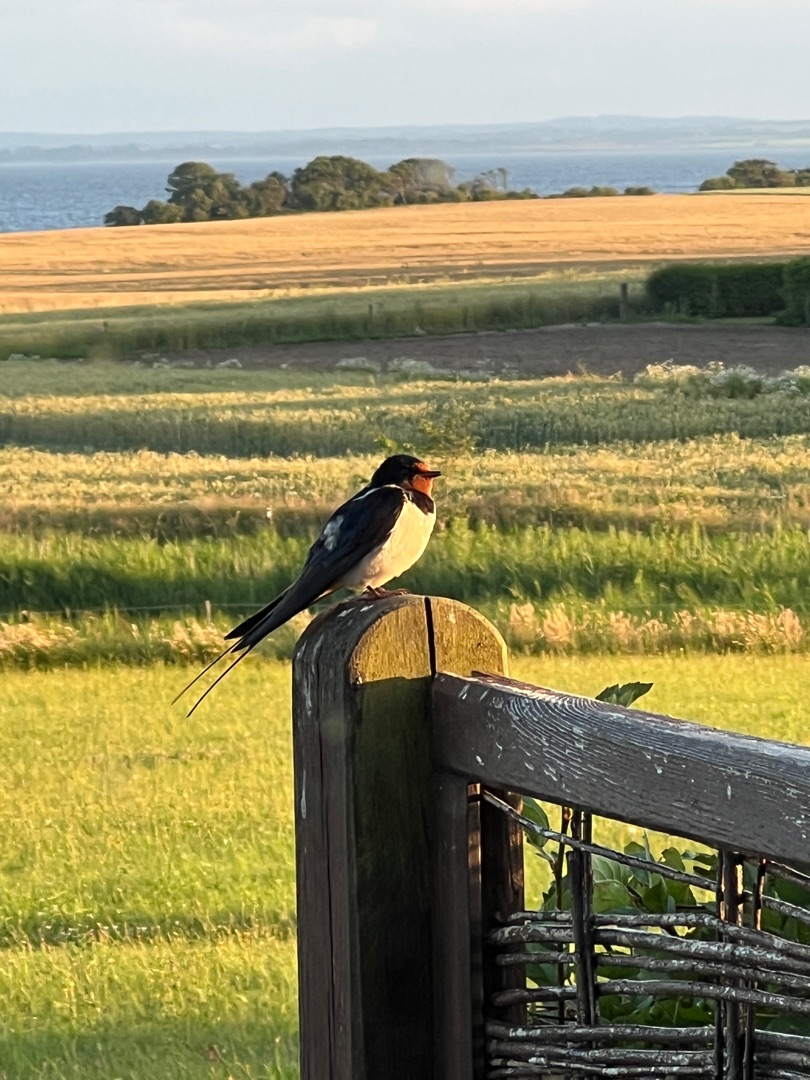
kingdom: Animalia
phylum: Chordata
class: Aves
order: Passeriformes
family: Hirundinidae
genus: Hirundo
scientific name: Hirundo rustica
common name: Landsvale
